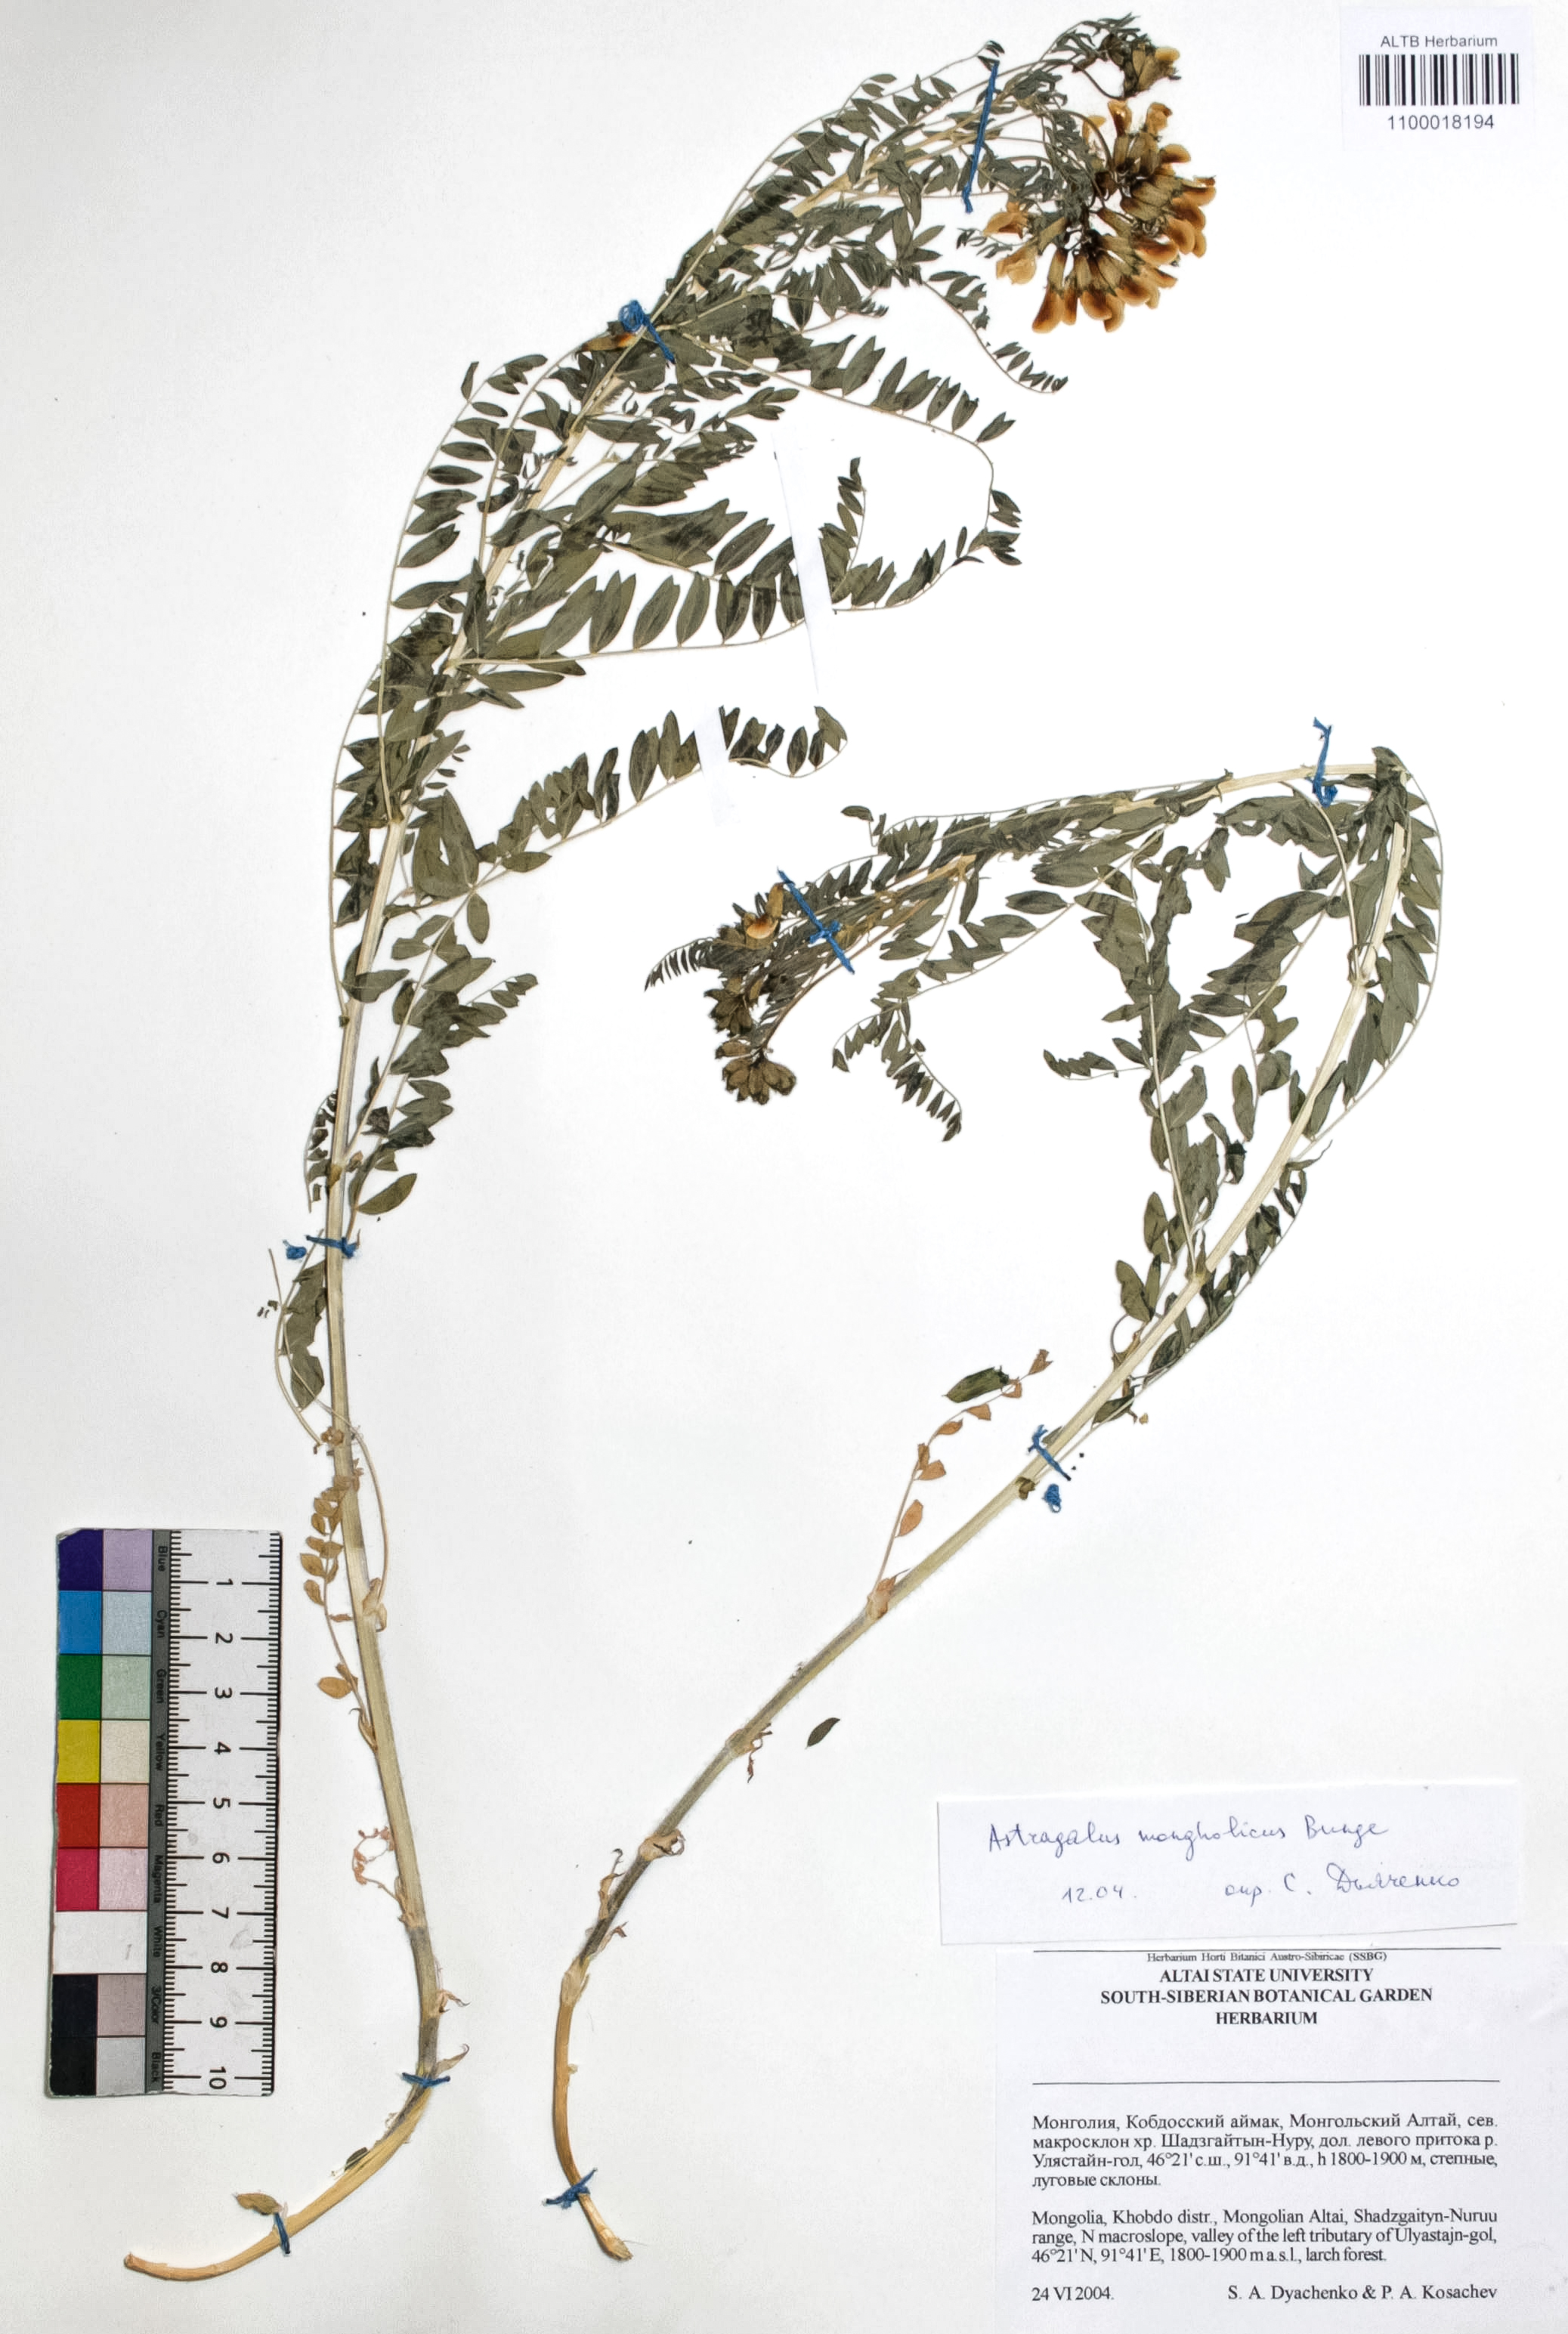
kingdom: Plantae
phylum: Tracheophyta
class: Magnoliopsida
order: Fabales
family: Fabaceae
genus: Astragalus
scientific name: Astragalus mongolicus
